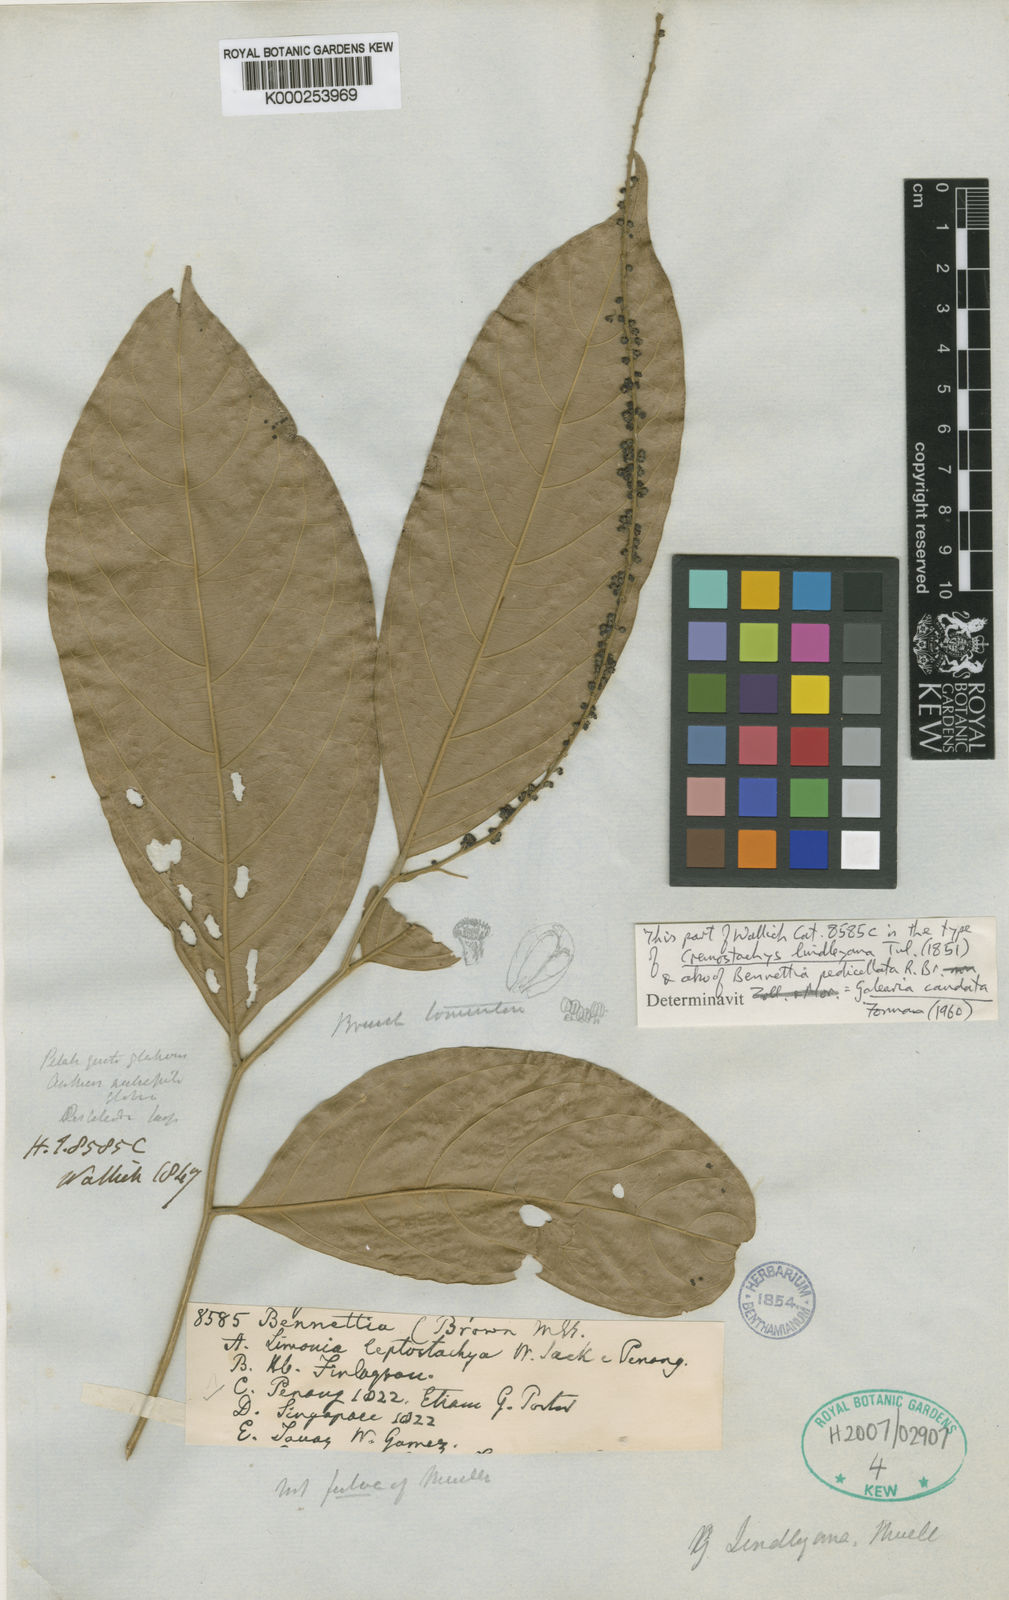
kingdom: Plantae
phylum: Tracheophyta
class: Magnoliopsida
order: Malpighiales
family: Pandaceae
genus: Galearia
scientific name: Galearia fulva
